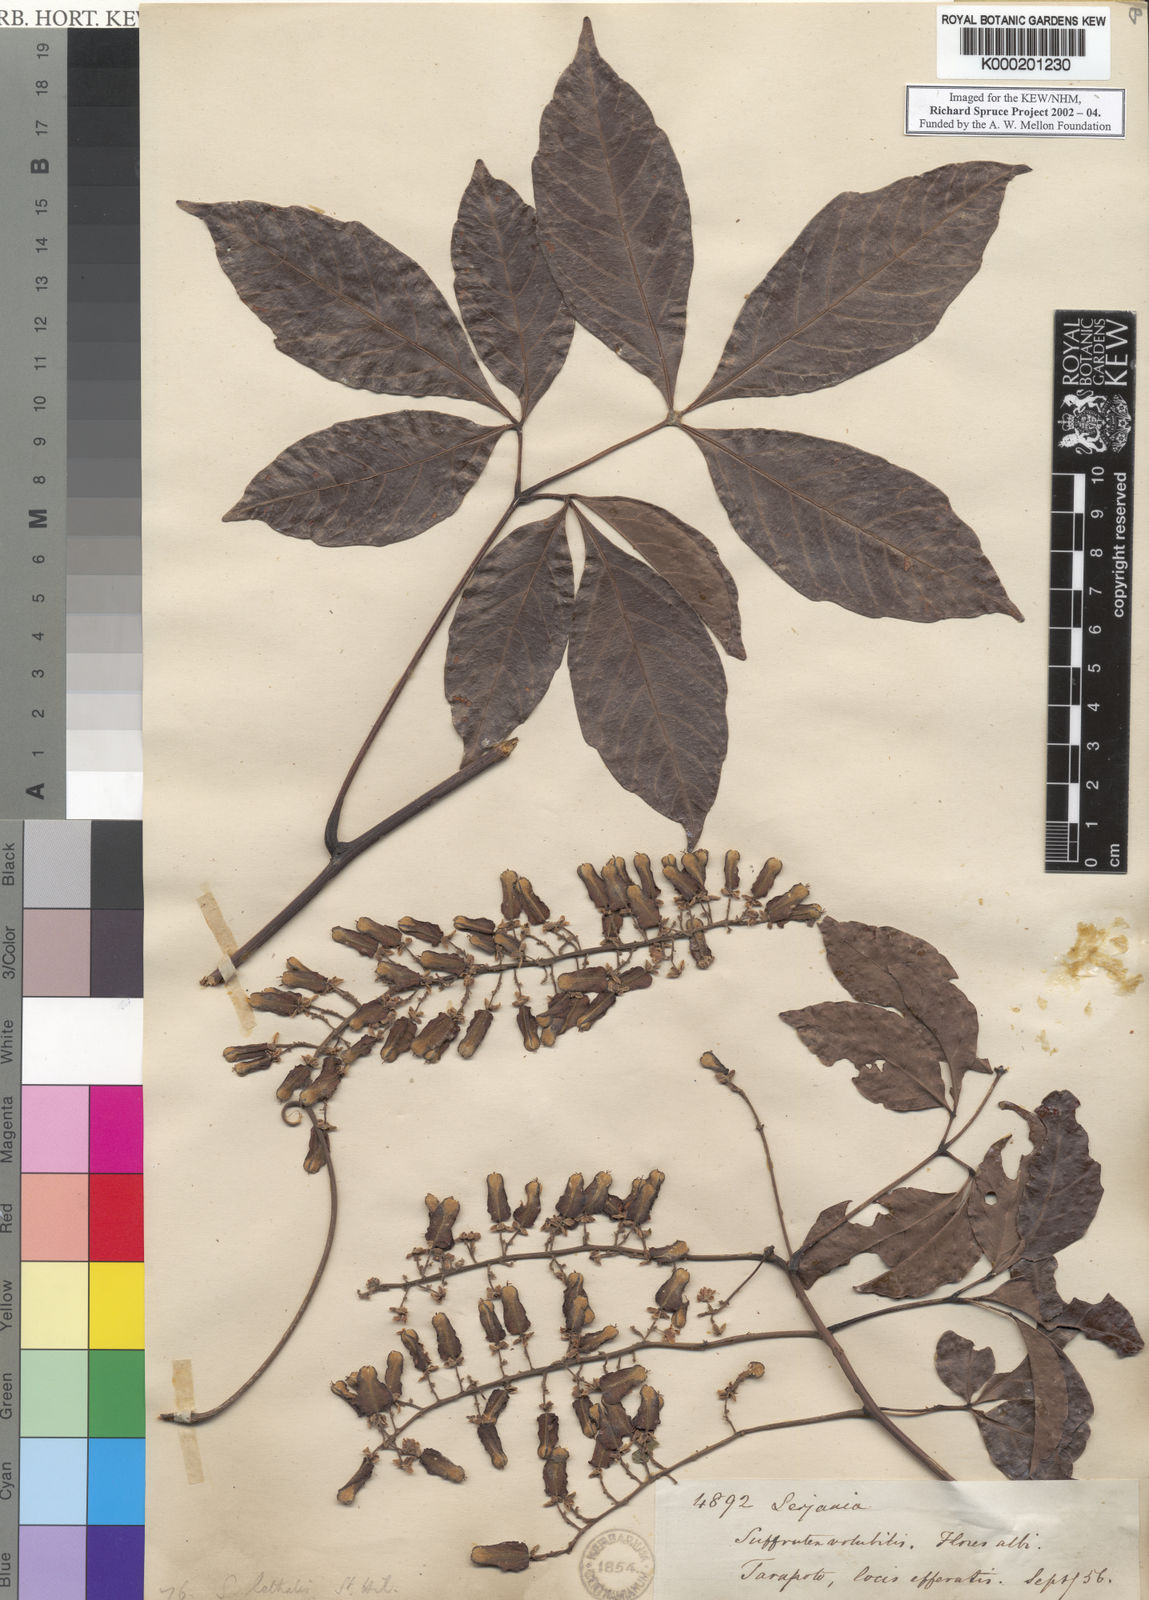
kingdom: Plantae
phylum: Tracheophyta
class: Magnoliopsida
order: Sapindales
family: Sapindaceae
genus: Serjania
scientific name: Serjania lethalis
